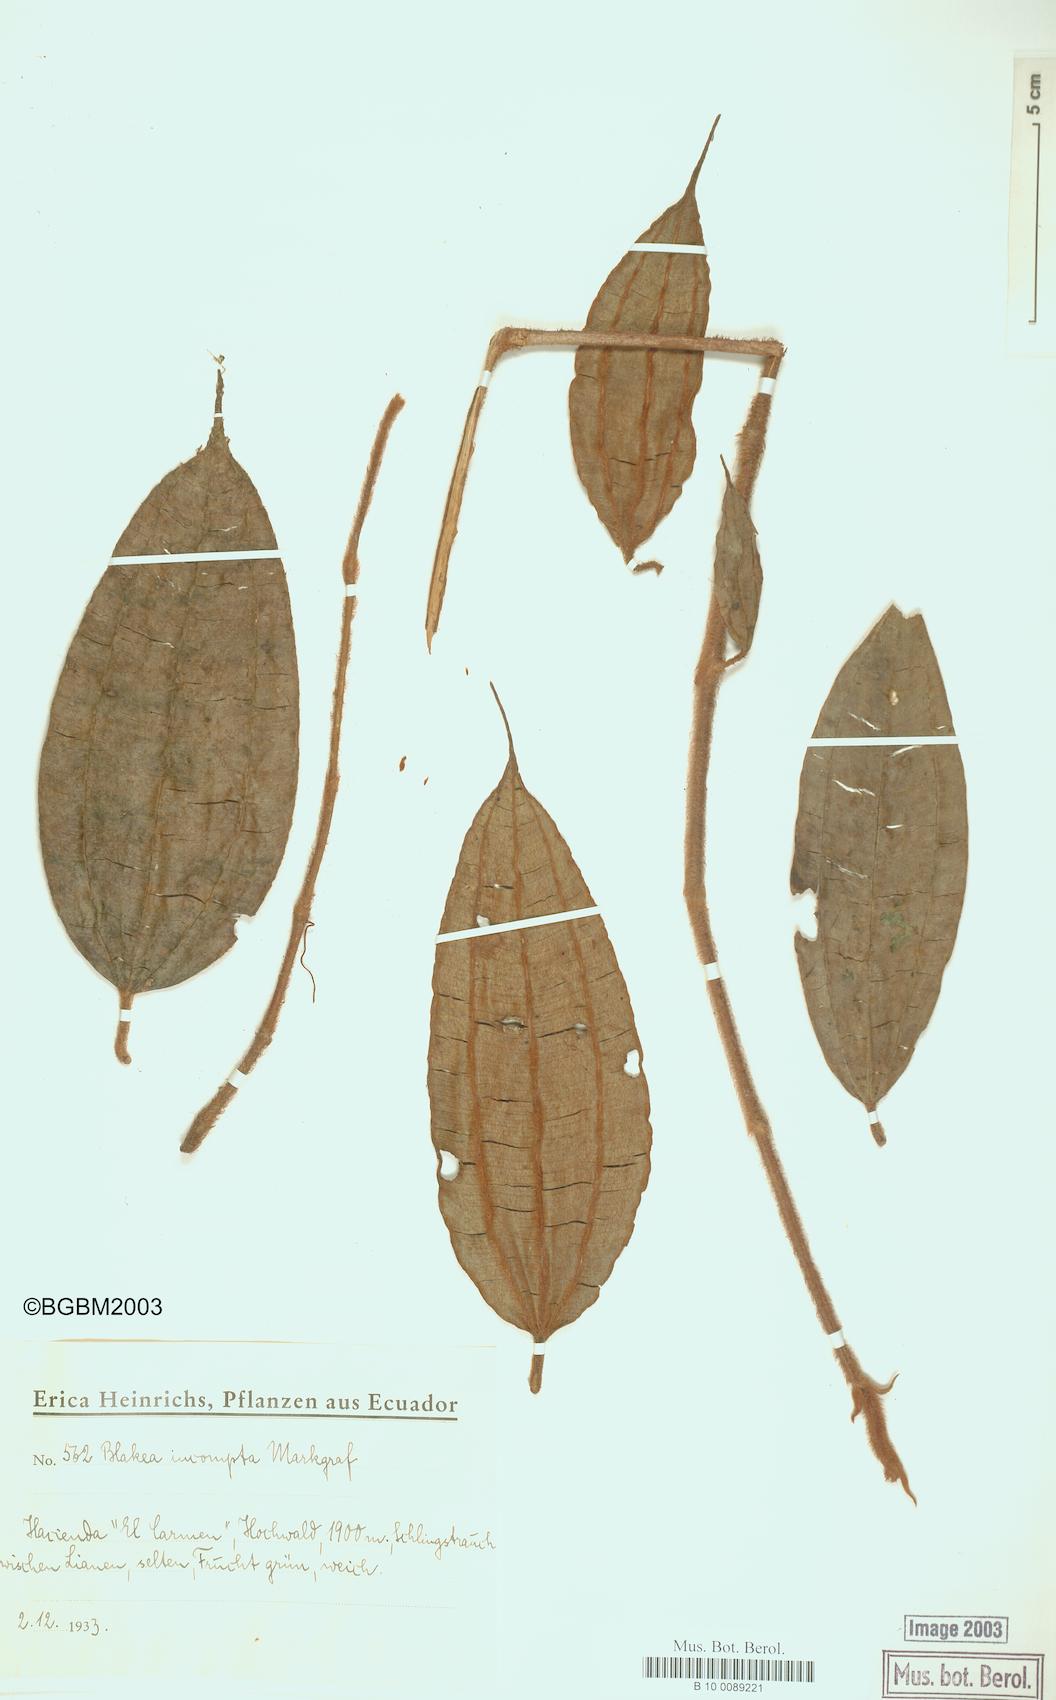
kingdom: Plantae
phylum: Tracheophyta
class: Magnoliopsida
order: Myrtales
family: Melastomataceae
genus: Blakea
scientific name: Blakea incompta
